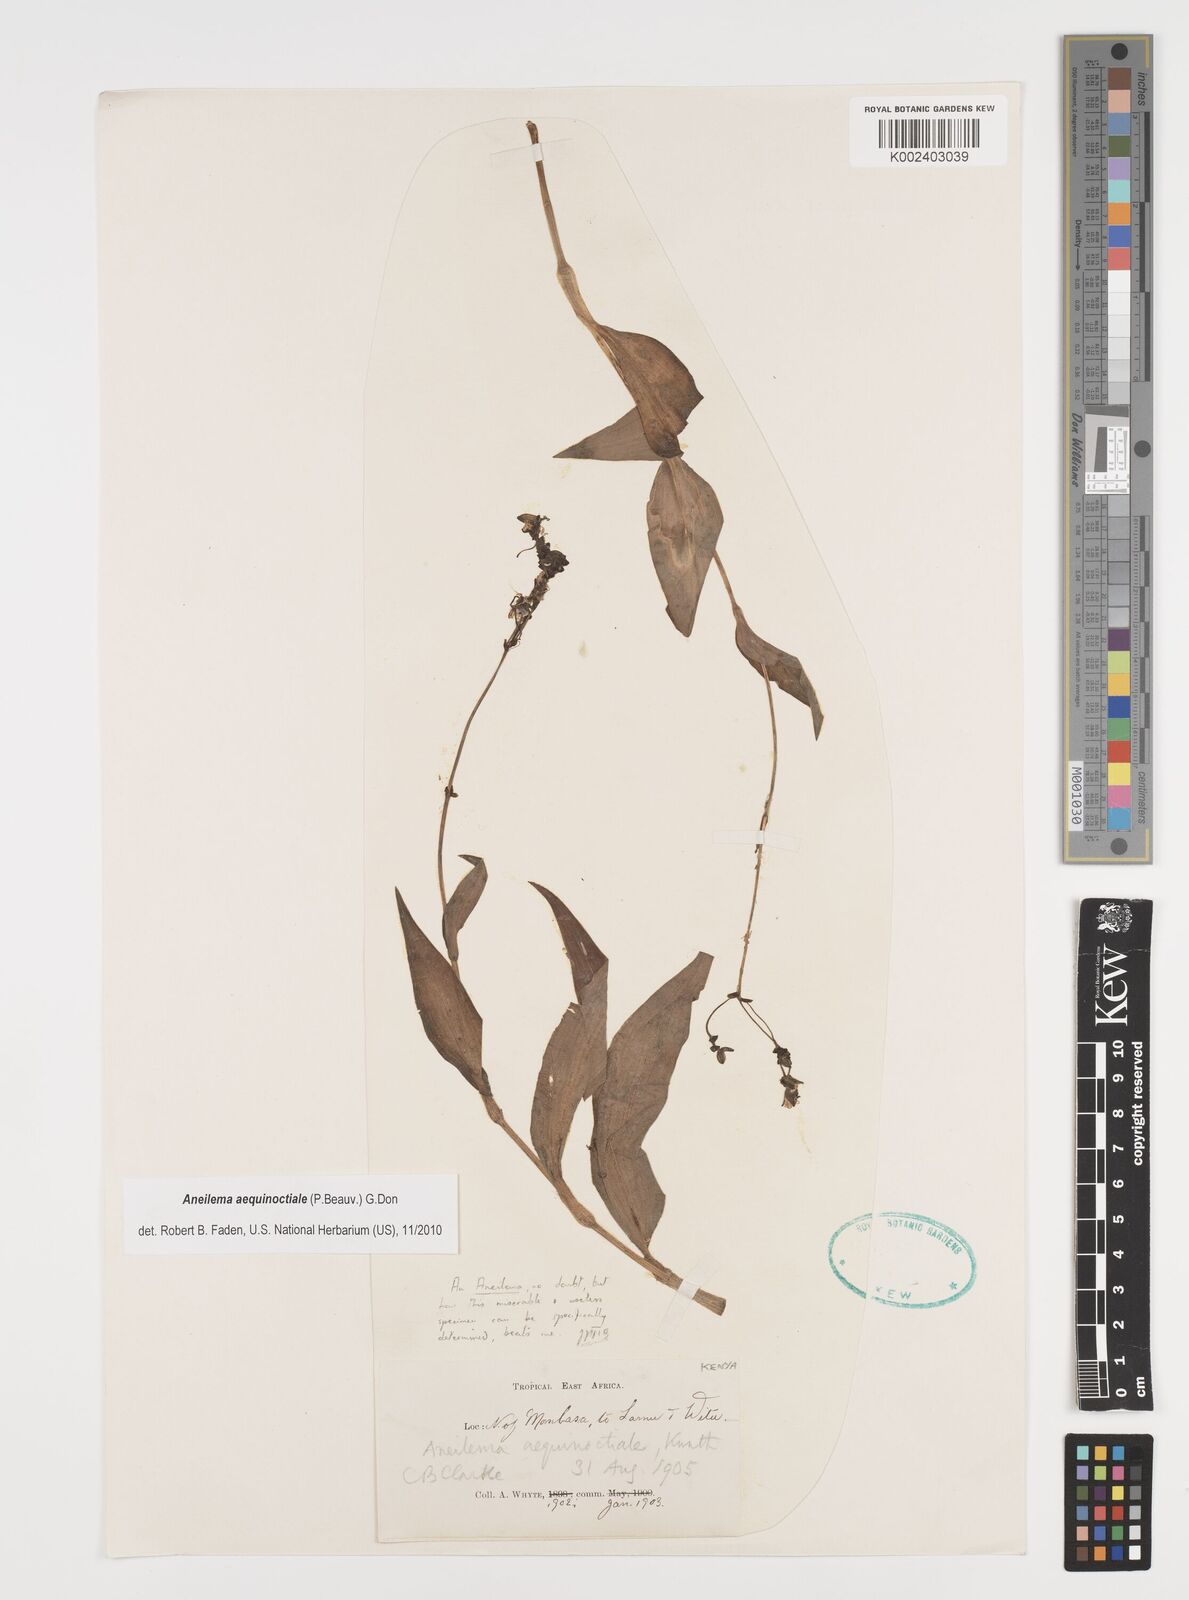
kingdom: Plantae
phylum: Tracheophyta
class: Liliopsida
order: Commelinales
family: Commelinaceae
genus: Aneilema
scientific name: Aneilema aequinoctiale
